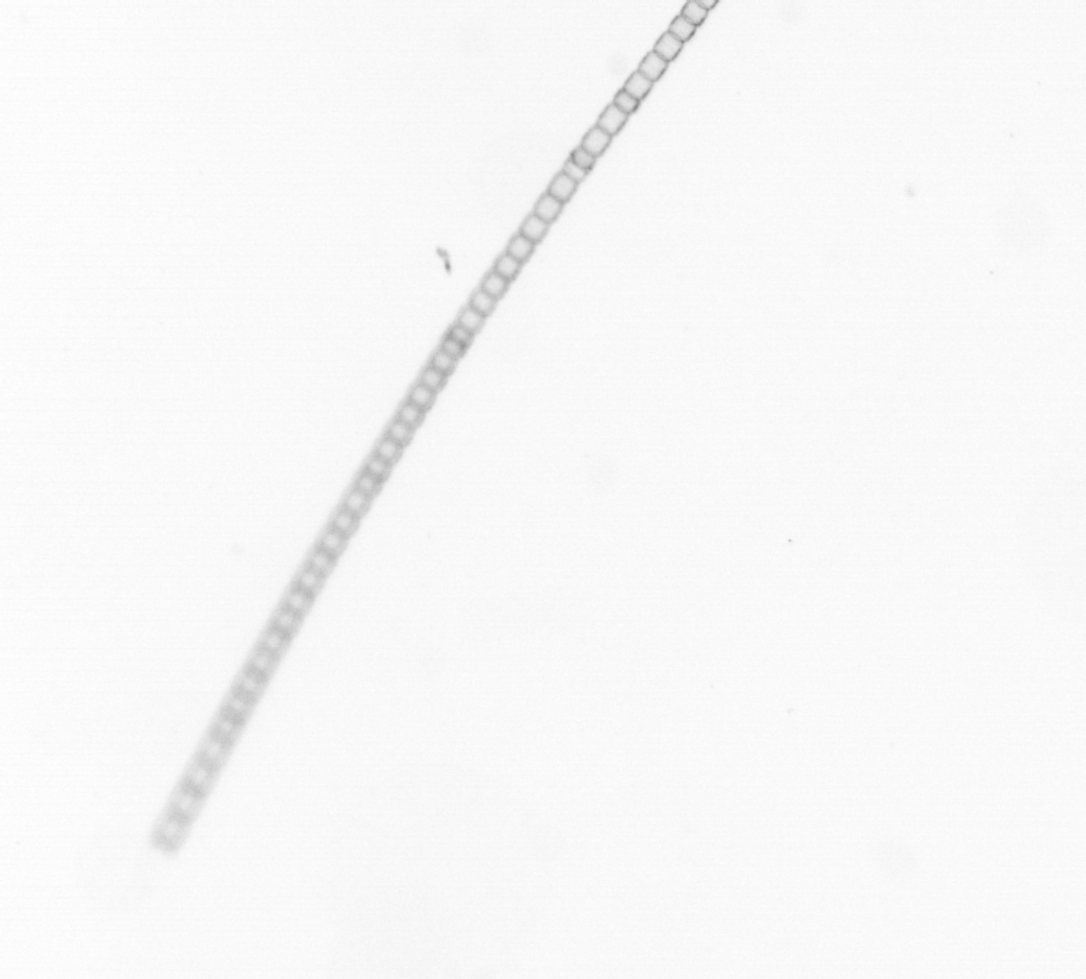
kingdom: Chromista
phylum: Ochrophyta
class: Bacillariophyceae
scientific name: Bacillariophyceae
